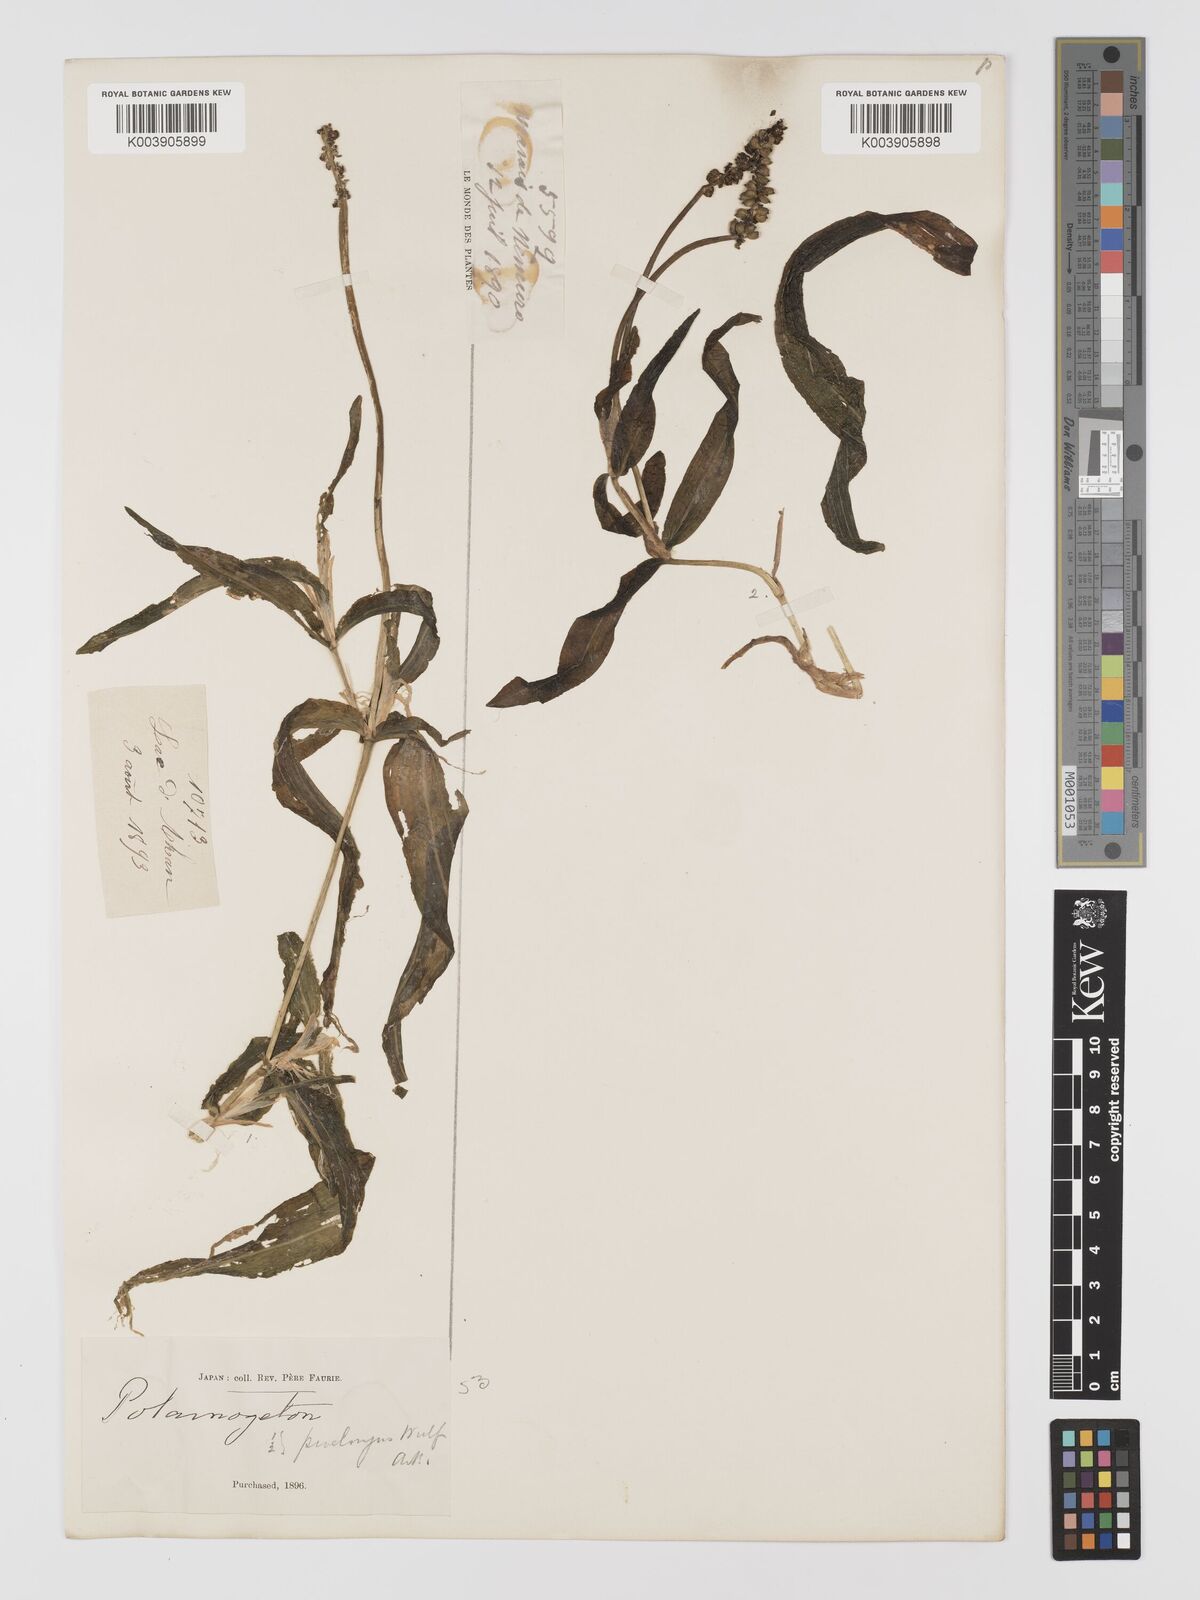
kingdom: Plantae
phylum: Tracheophyta
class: Liliopsida
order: Alismatales
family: Potamogetonaceae
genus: Potamogeton
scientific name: Potamogeton praelongus
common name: Long-stalked pondweed
